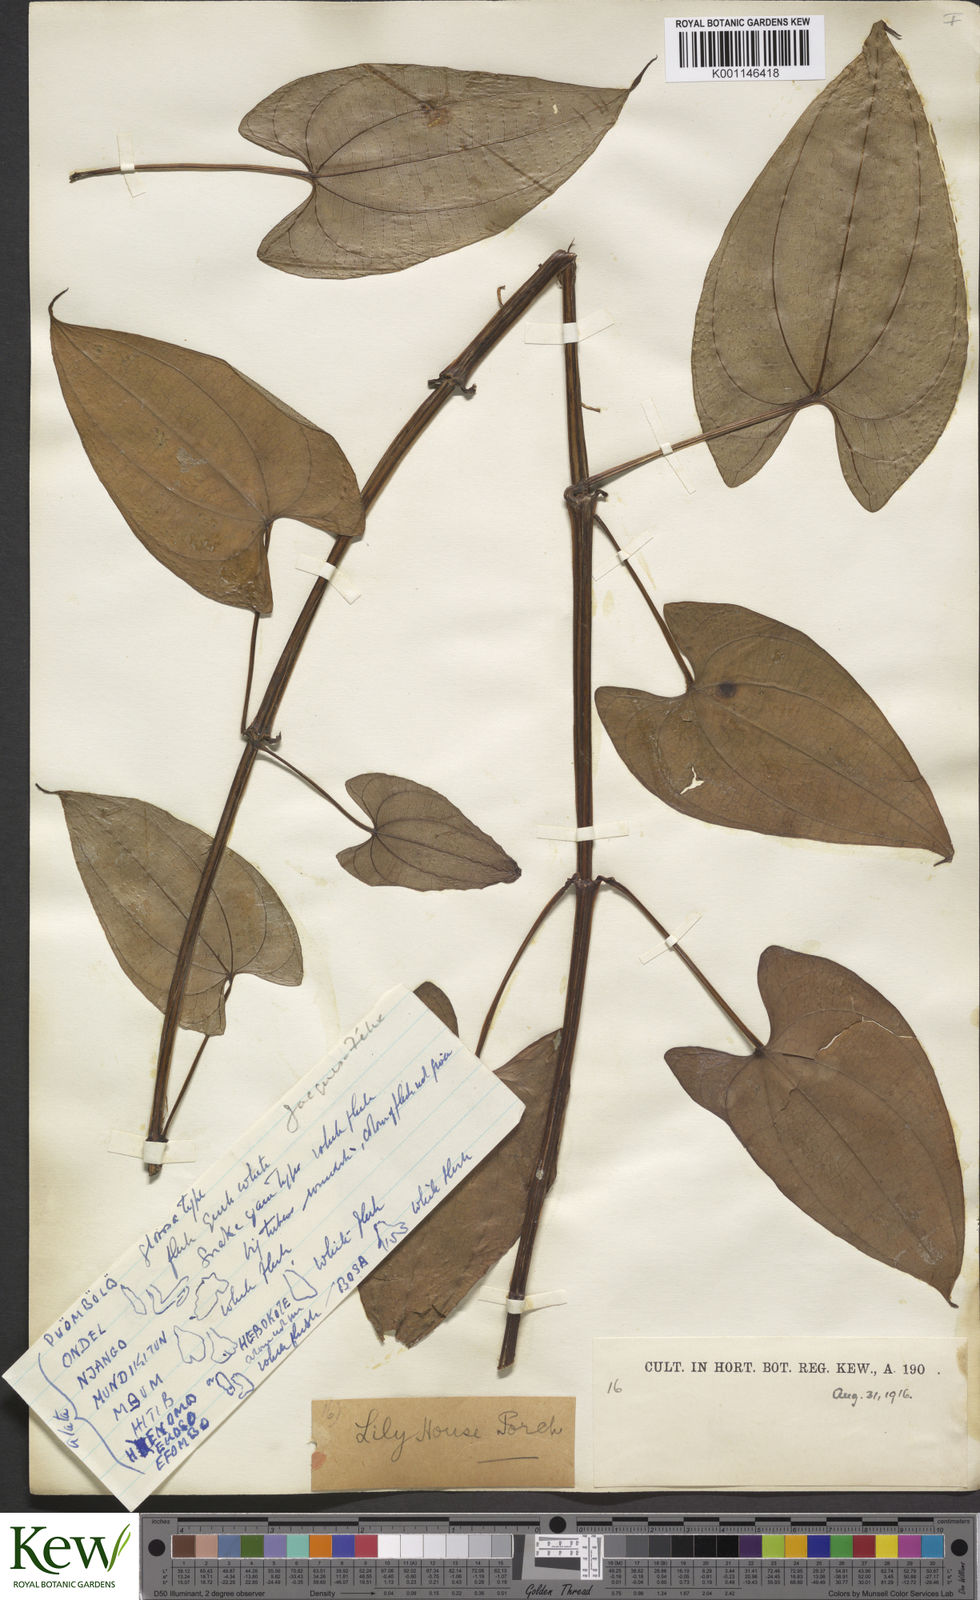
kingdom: Plantae
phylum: Tracheophyta
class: Liliopsida
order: Dioscoreales
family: Dioscoreaceae
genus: Dioscorea
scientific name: Dioscorea alata
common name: Water yam
